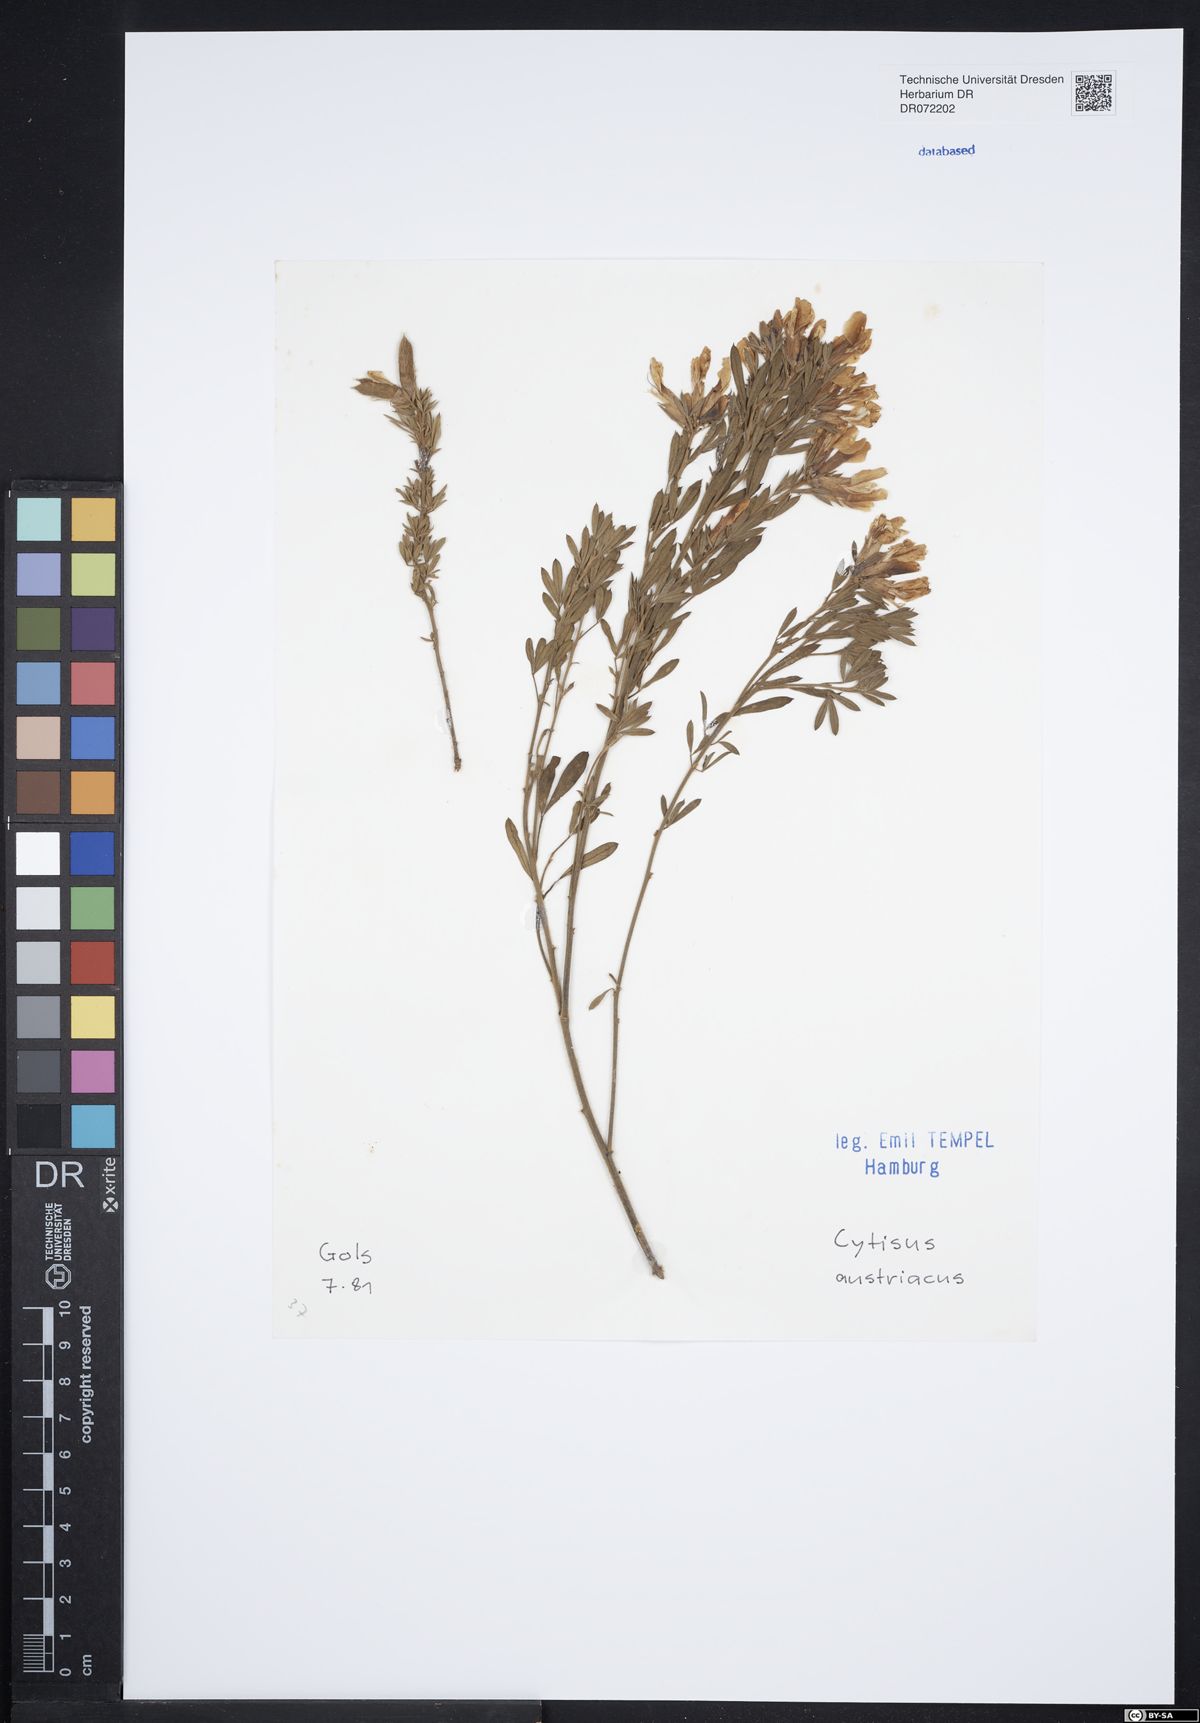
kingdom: Plantae
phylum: Tracheophyta
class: Magnoliopsida
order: Fabales
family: Fabaceae
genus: Chamaecytisus
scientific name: Chamaecytisus austriacus
